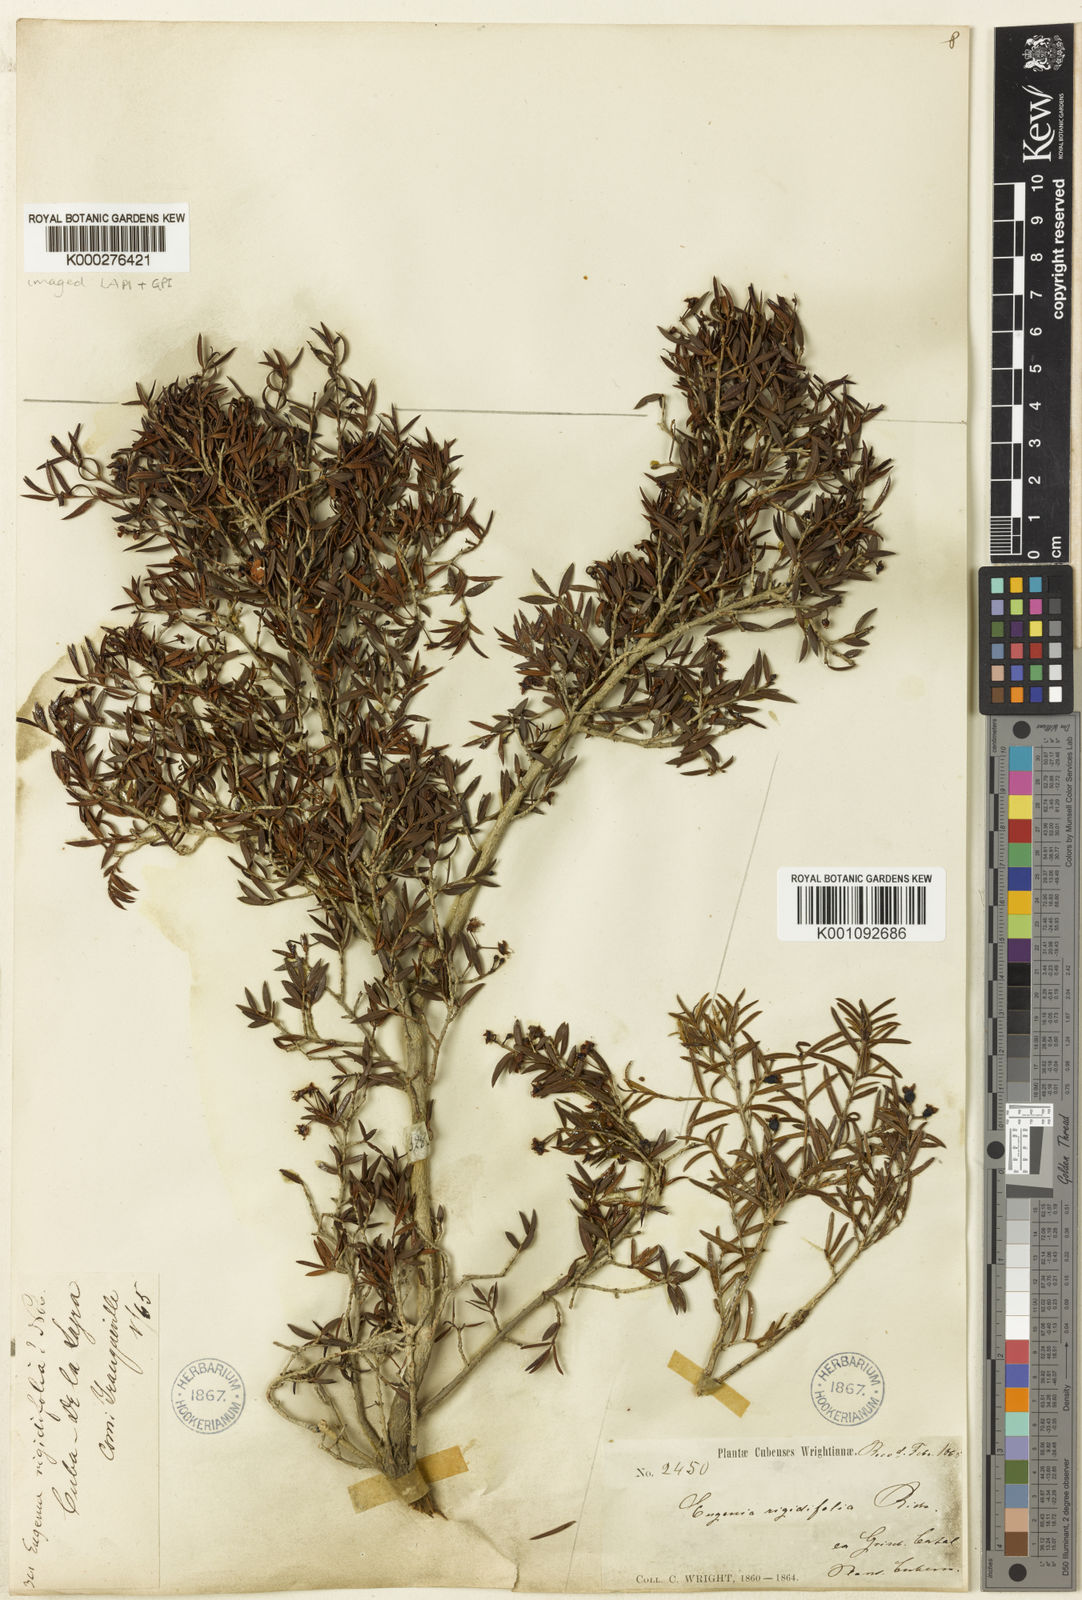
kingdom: Plantae
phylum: Tracheophyta
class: Magnoliopsida
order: Myrtales
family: Myrtaceae
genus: Eugenia
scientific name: Eugenia rigidifolia
